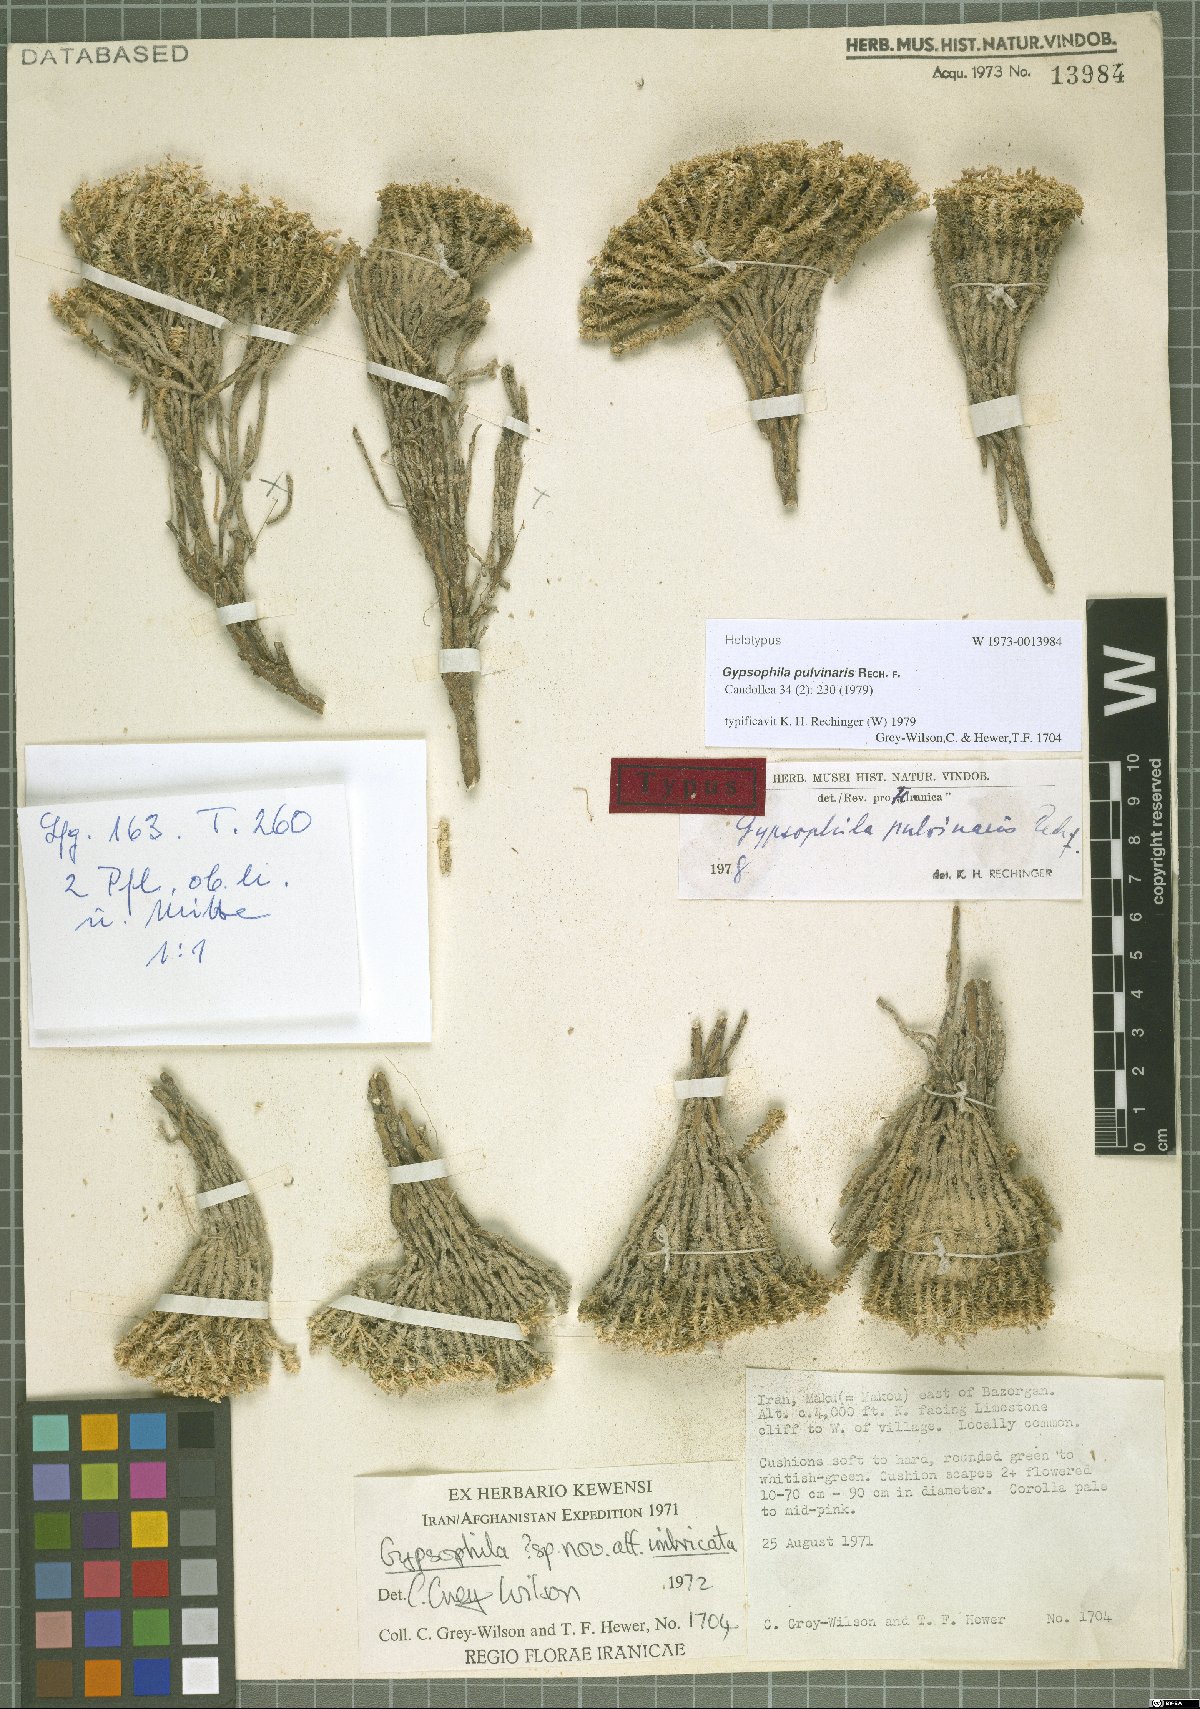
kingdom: Plantae
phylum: Tracheophyta
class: Magnoliopsida
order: Caryophyllales
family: Caryophyllaceae
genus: Gypsophila
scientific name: Gypsophila pulvinaris
